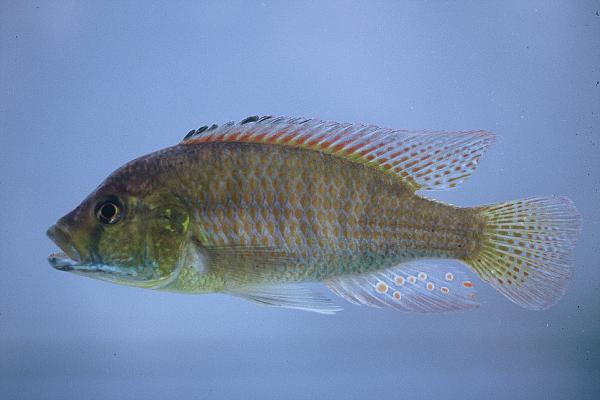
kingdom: Animalia
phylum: Chordata
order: Perciformes
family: Cichlidae
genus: Astatotilapia
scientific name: Astatotilapia
